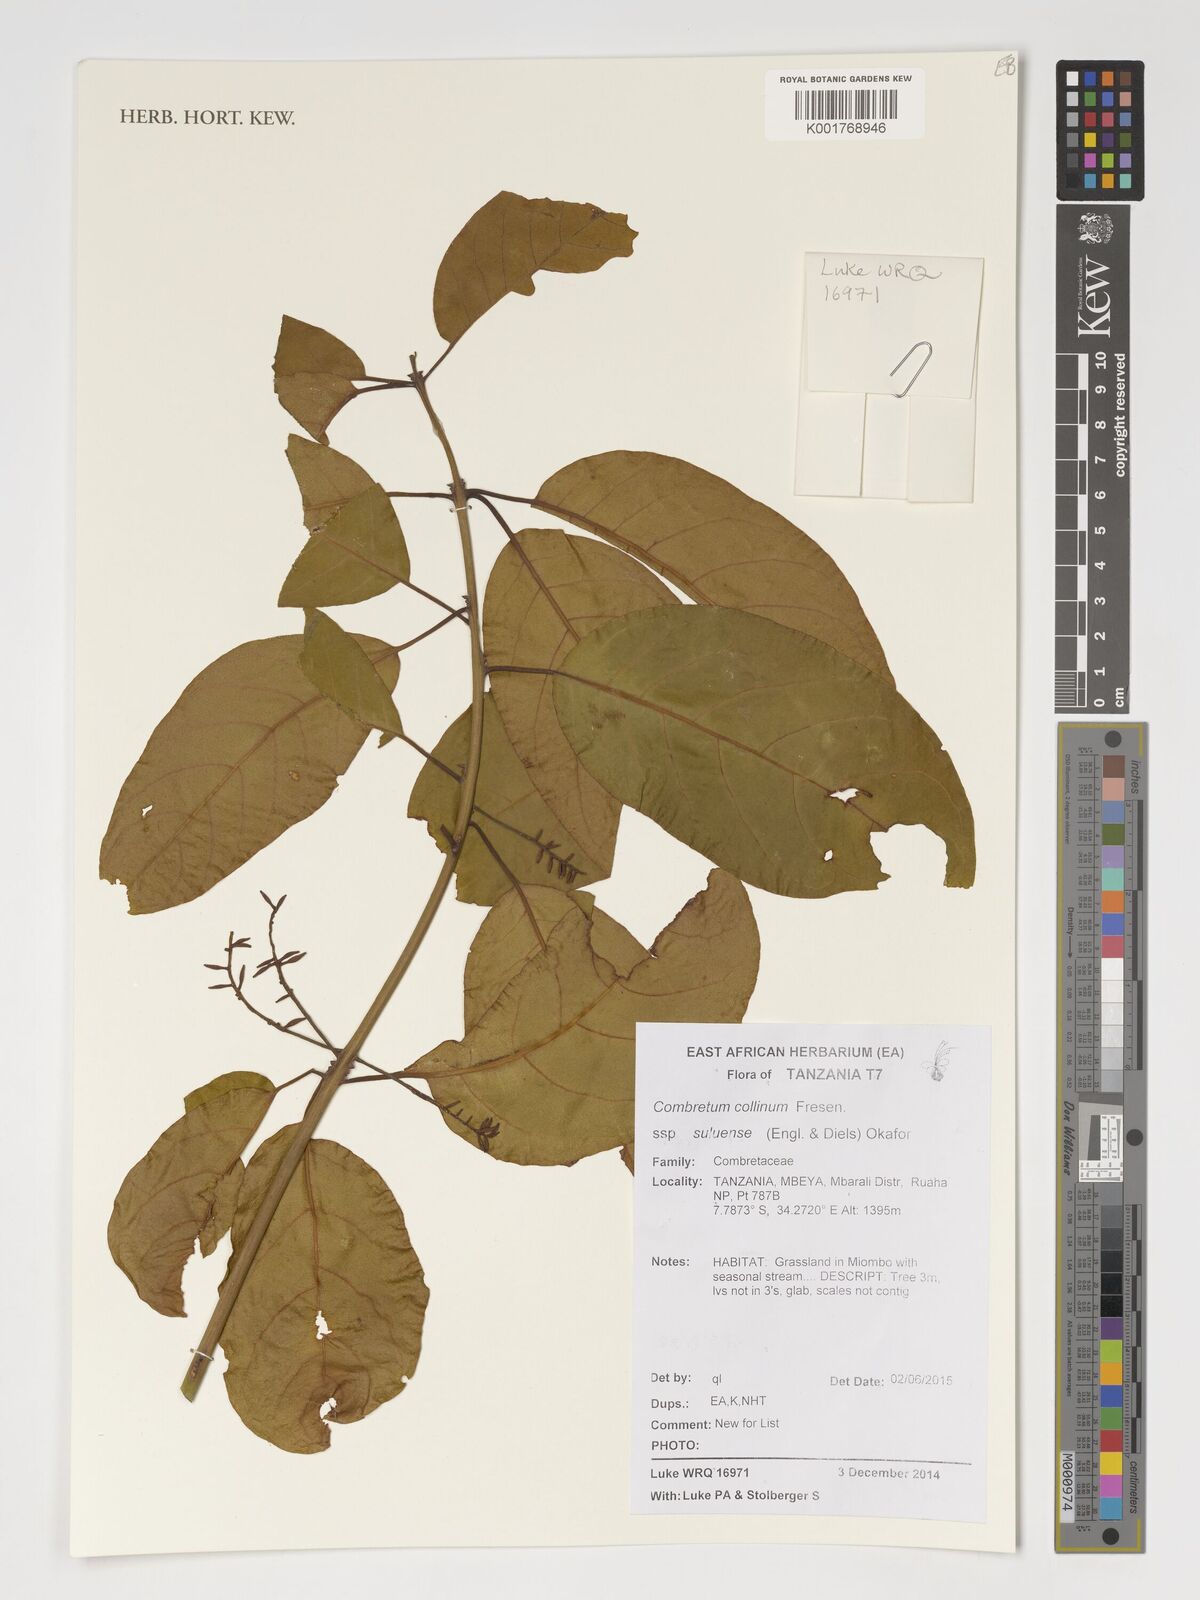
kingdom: Plantae
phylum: Tracheophyta
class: Magnoliopsida
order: Myrtales
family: Combretaceae
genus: Combretum
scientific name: Combretum collinum
